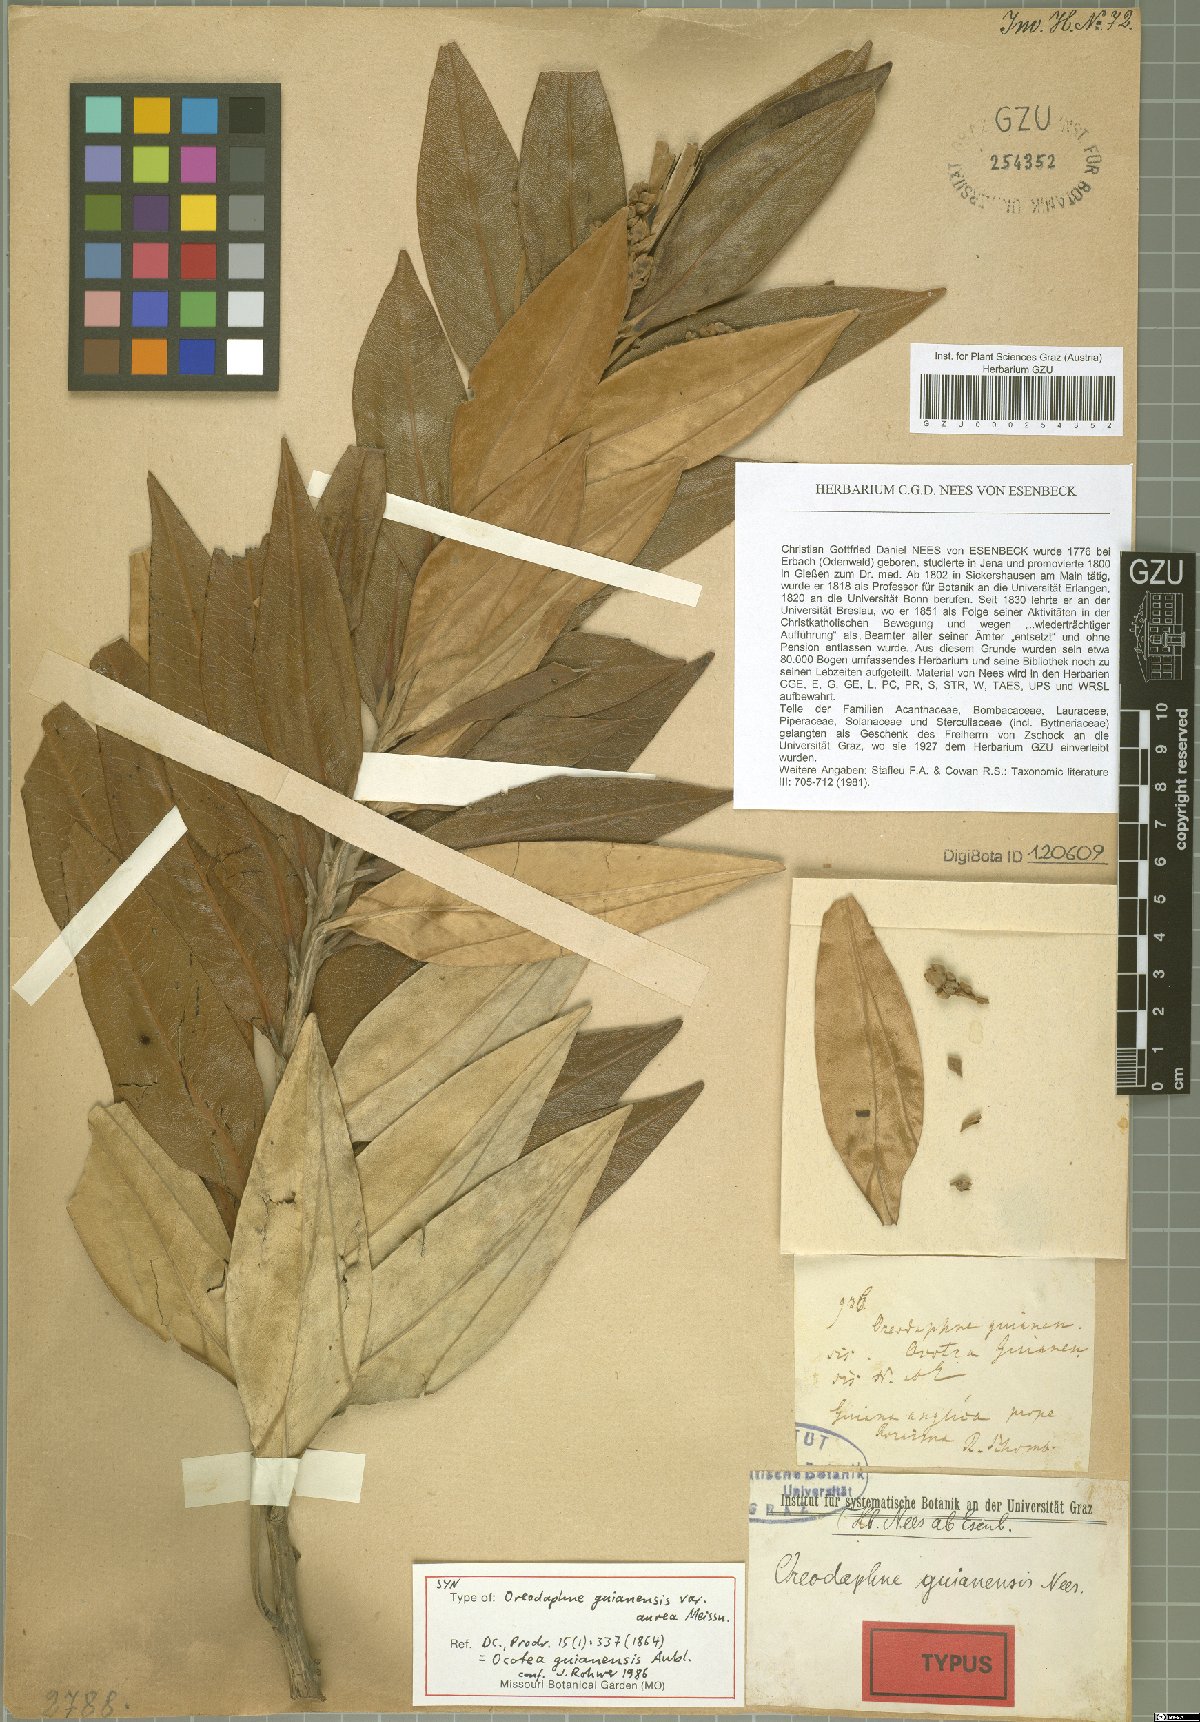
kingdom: Plantae
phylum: Tracheophyta
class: Magnoliopsida
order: Laurales
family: Lauraceae
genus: Ocotea
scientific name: Ocotea guianensis
